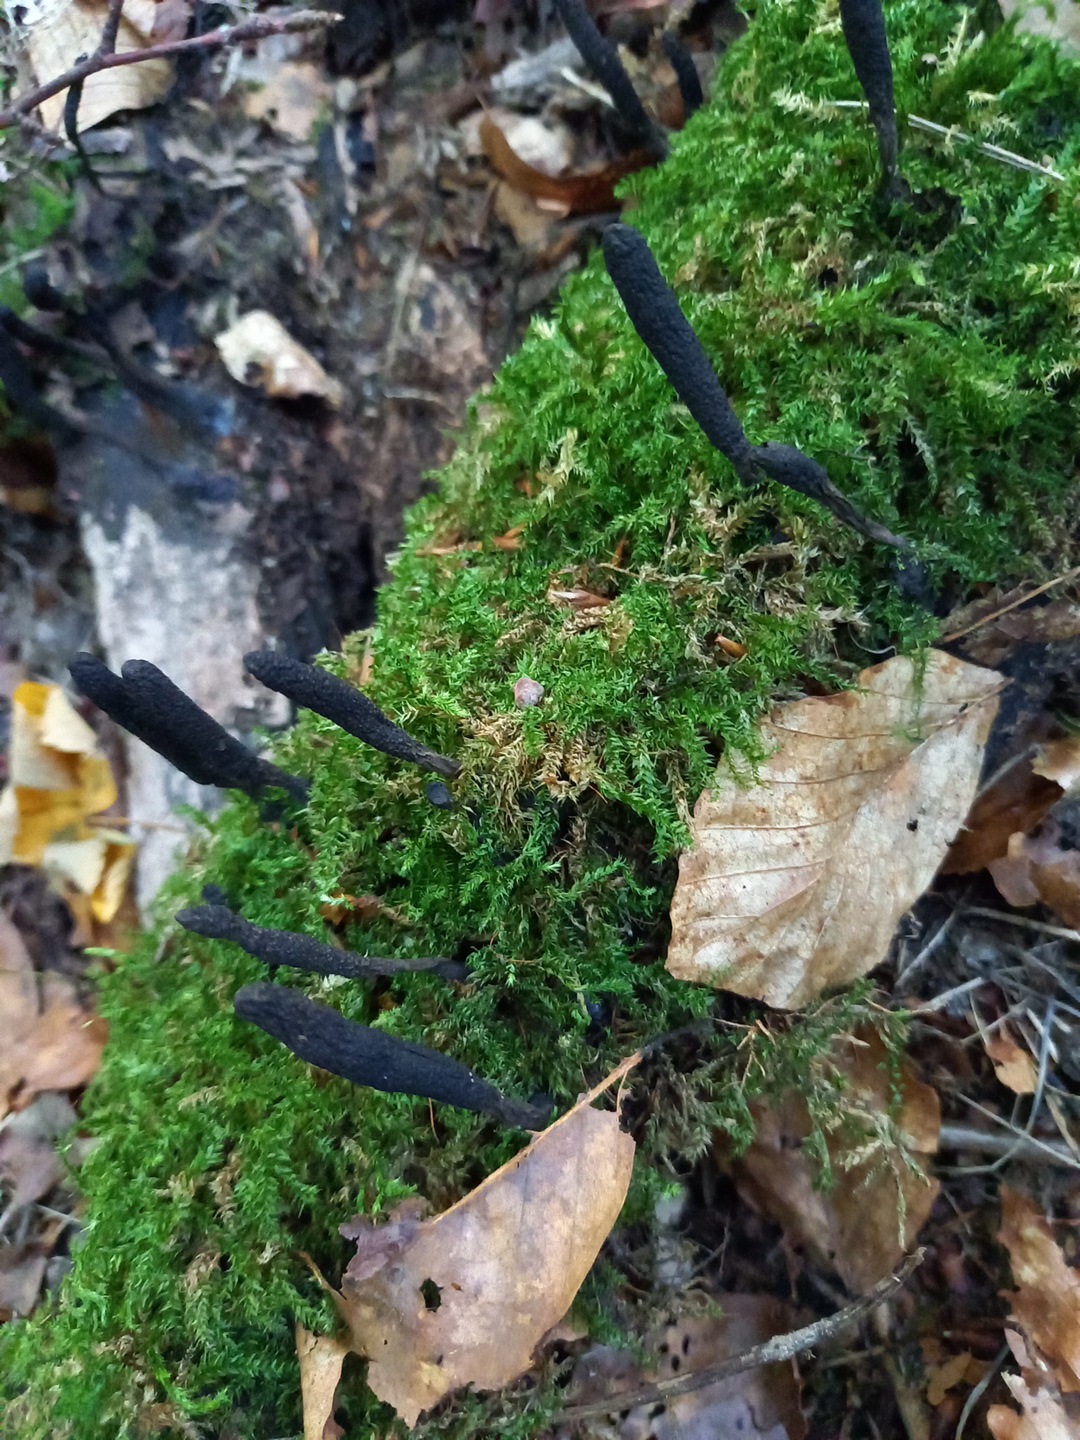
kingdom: Fungi
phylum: Ascomycota
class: Sordariomycetes
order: Xylariales
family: Xylariaceae
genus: Xylaria
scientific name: Xylaria longipes
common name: slank stødsvamp
